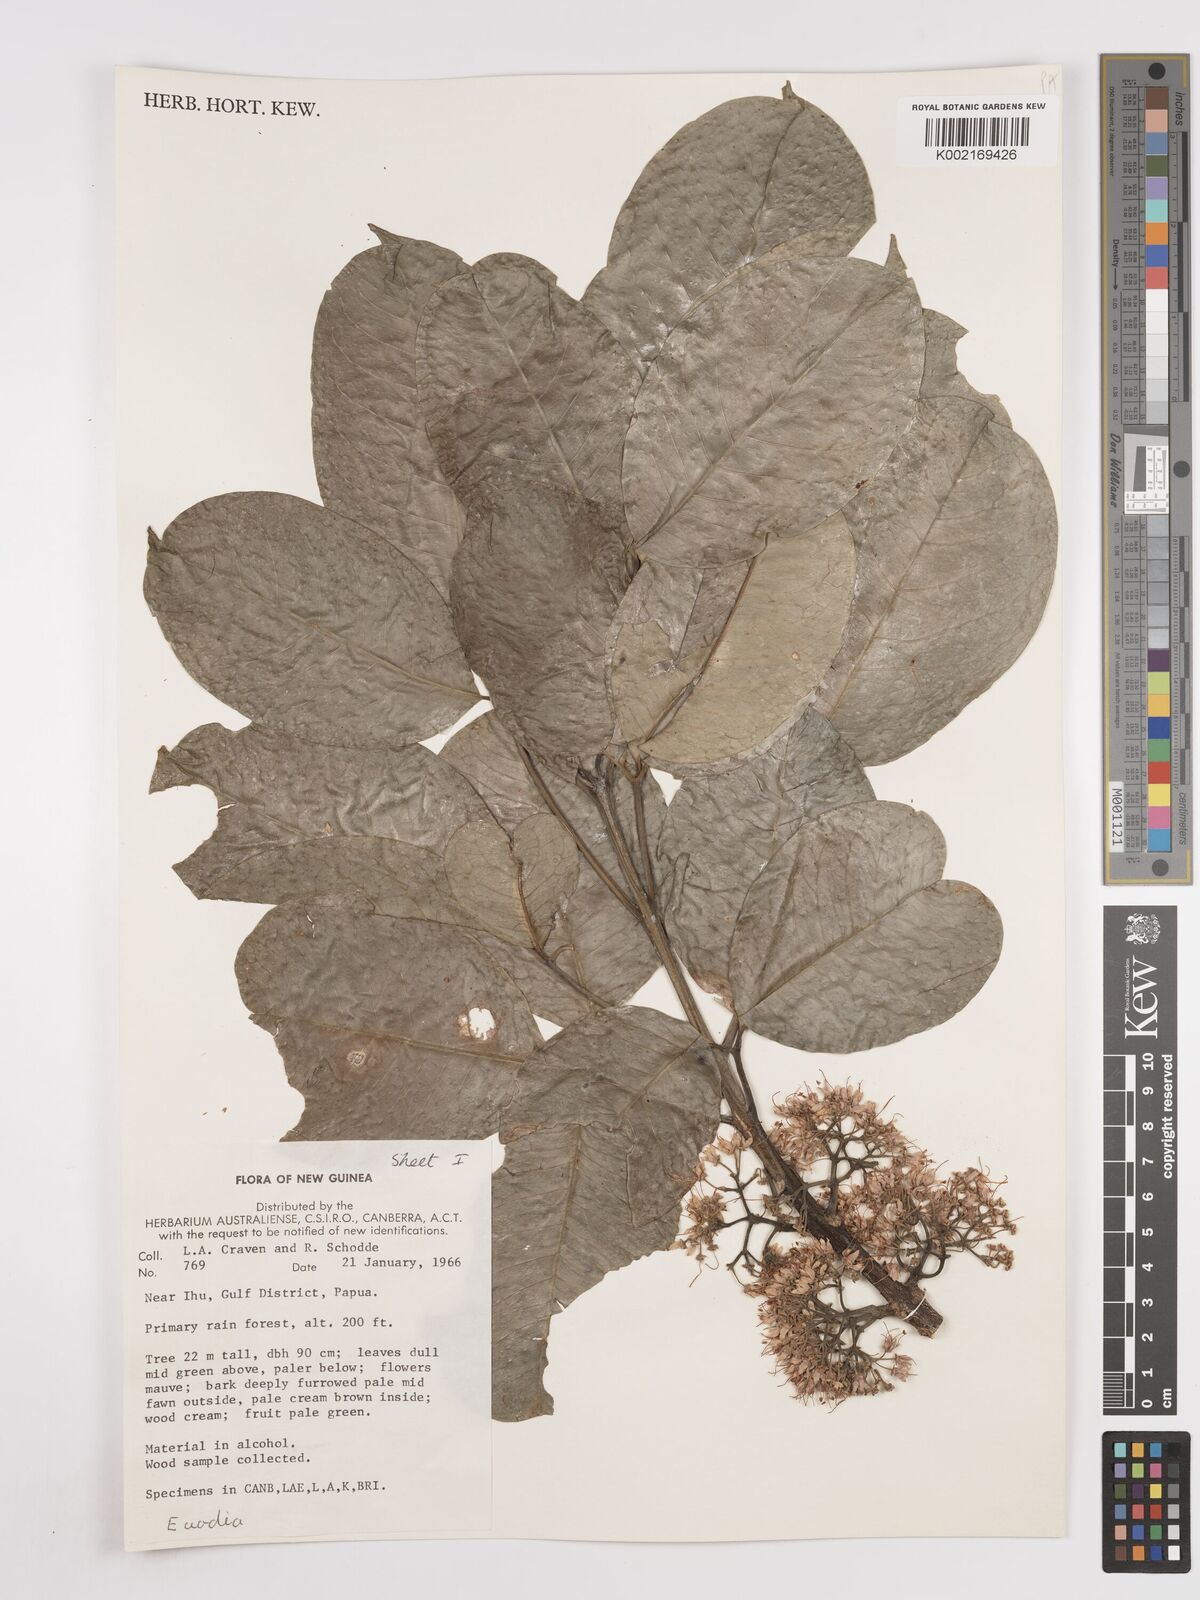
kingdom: Plantae
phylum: Tracheophyta
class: Magnoliopsida
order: Sapindales
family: Rutaceae
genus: Euodia
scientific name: Euodia
